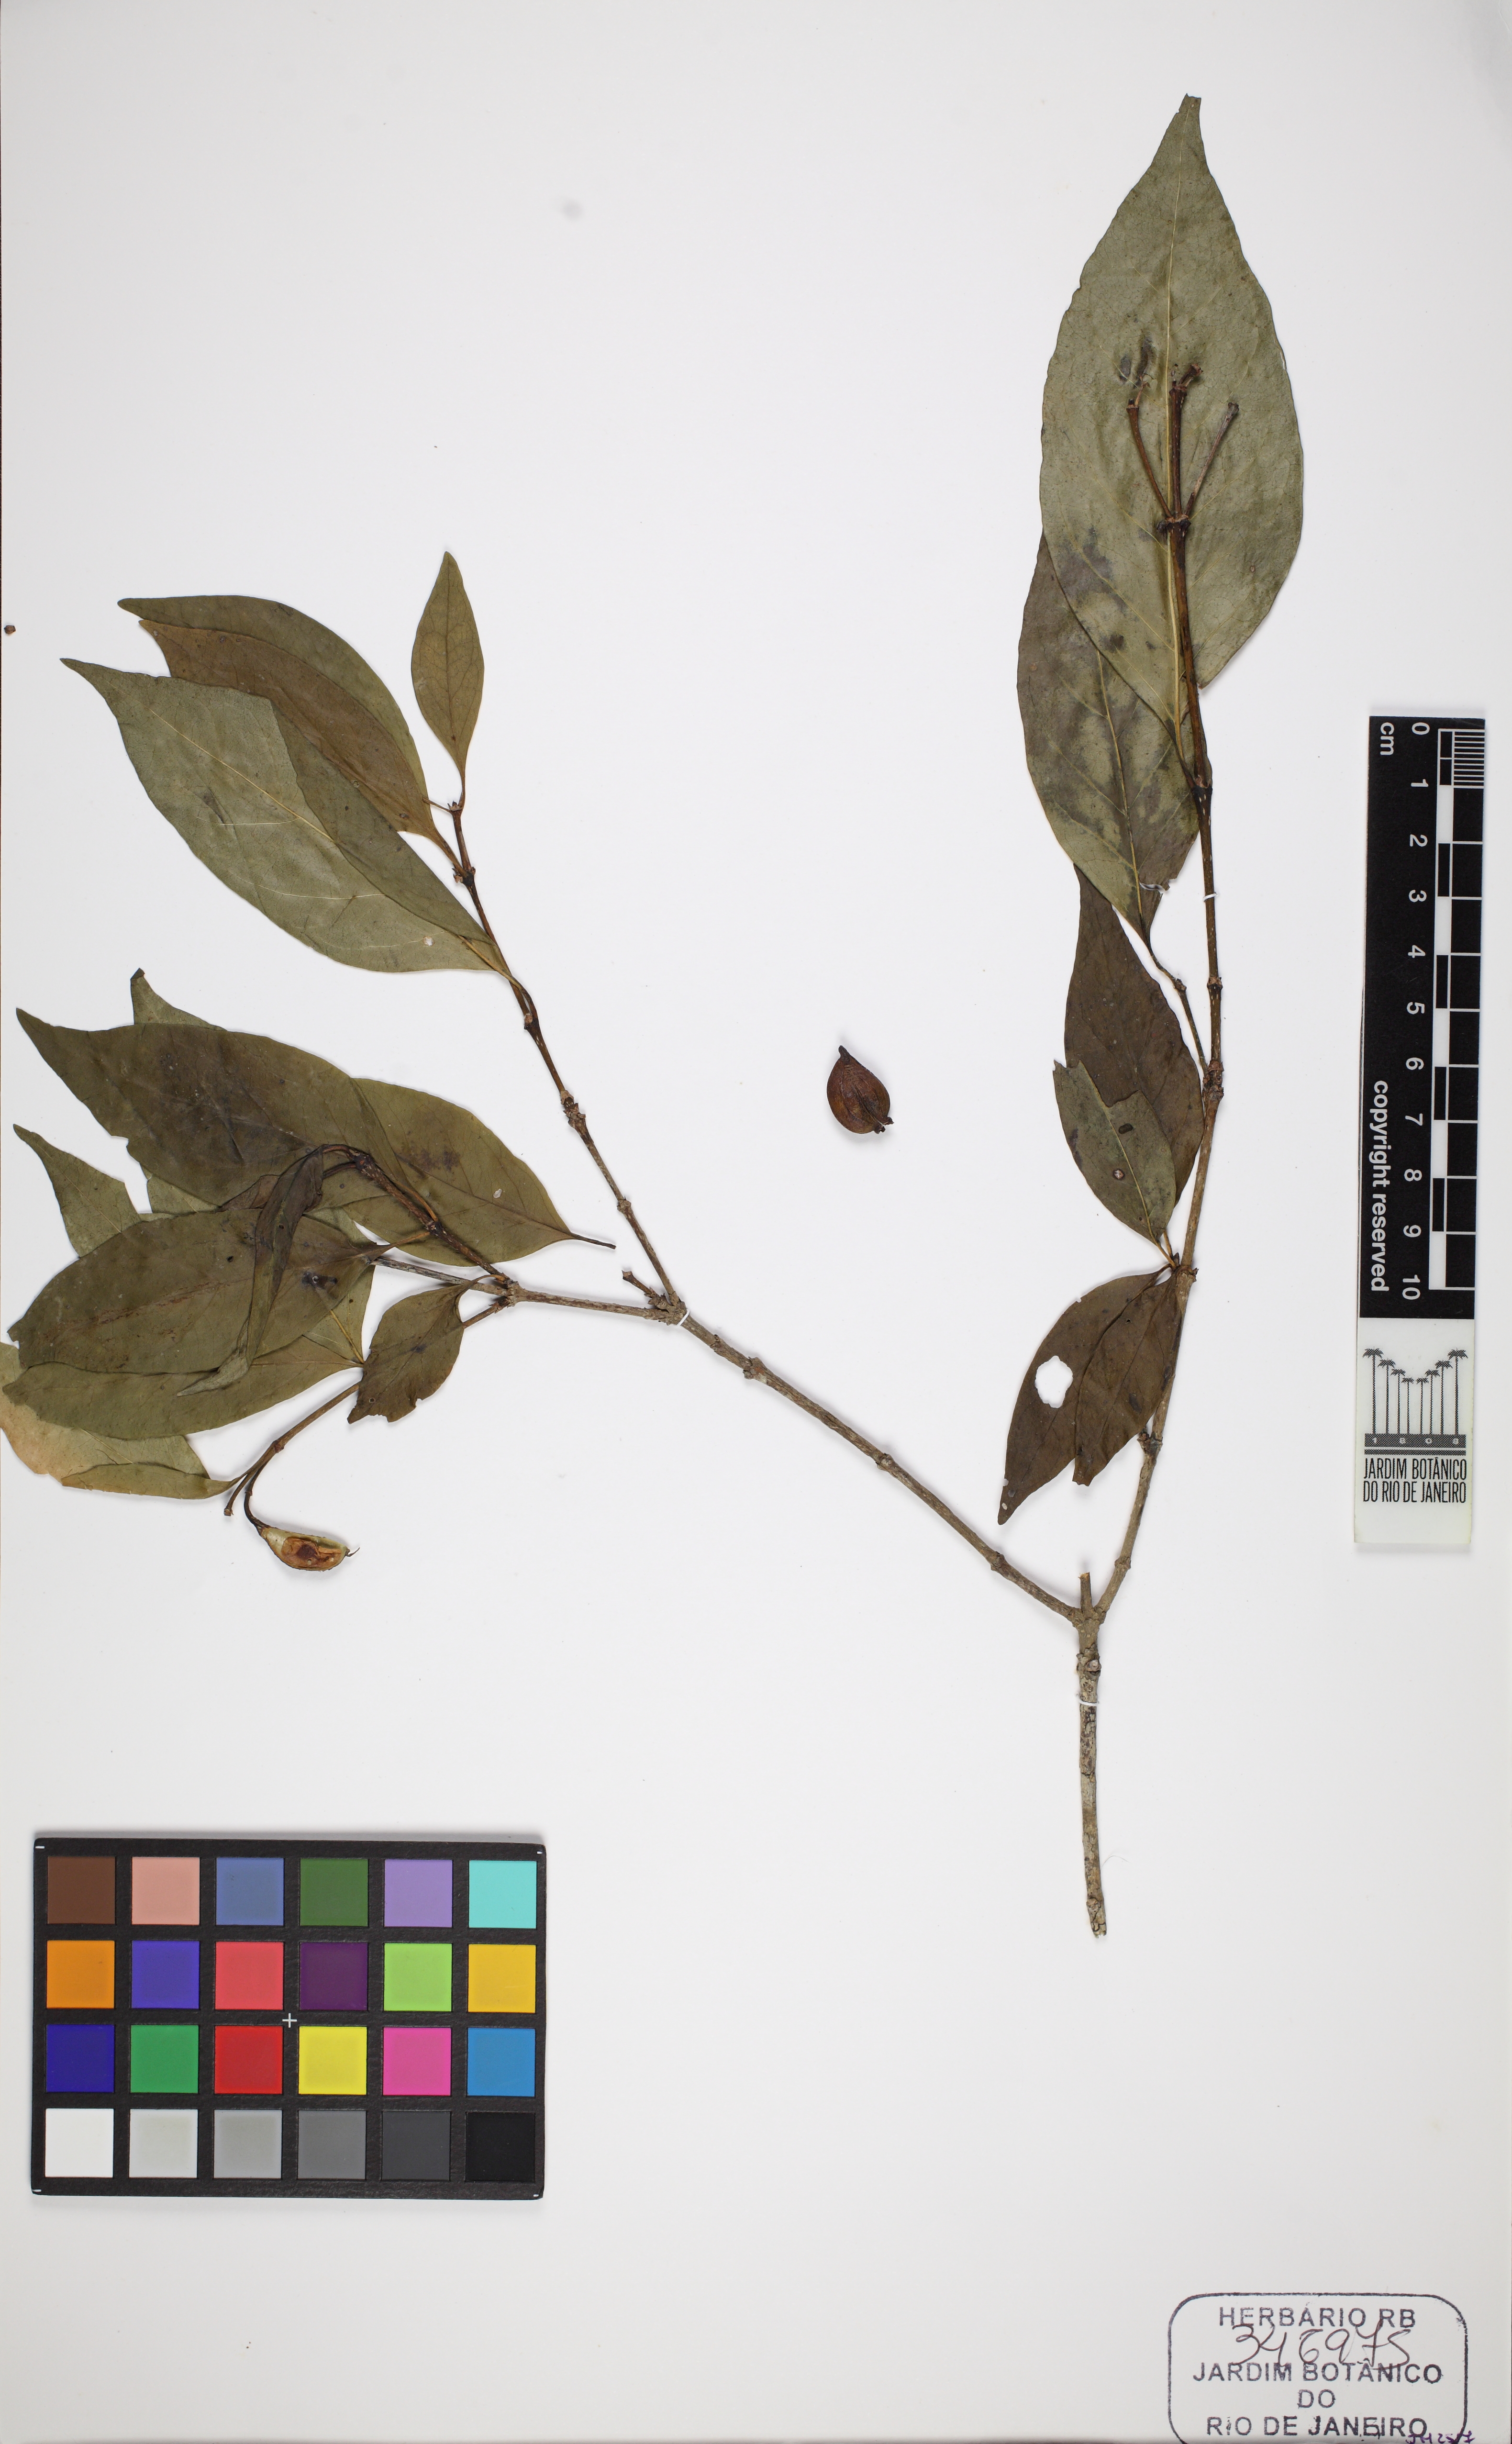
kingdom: Plantae
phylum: Tracheophyta
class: Magnoliopsida
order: Gentianales
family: Rubiaceae
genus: Coutarea
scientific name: Coutarea hexandra
